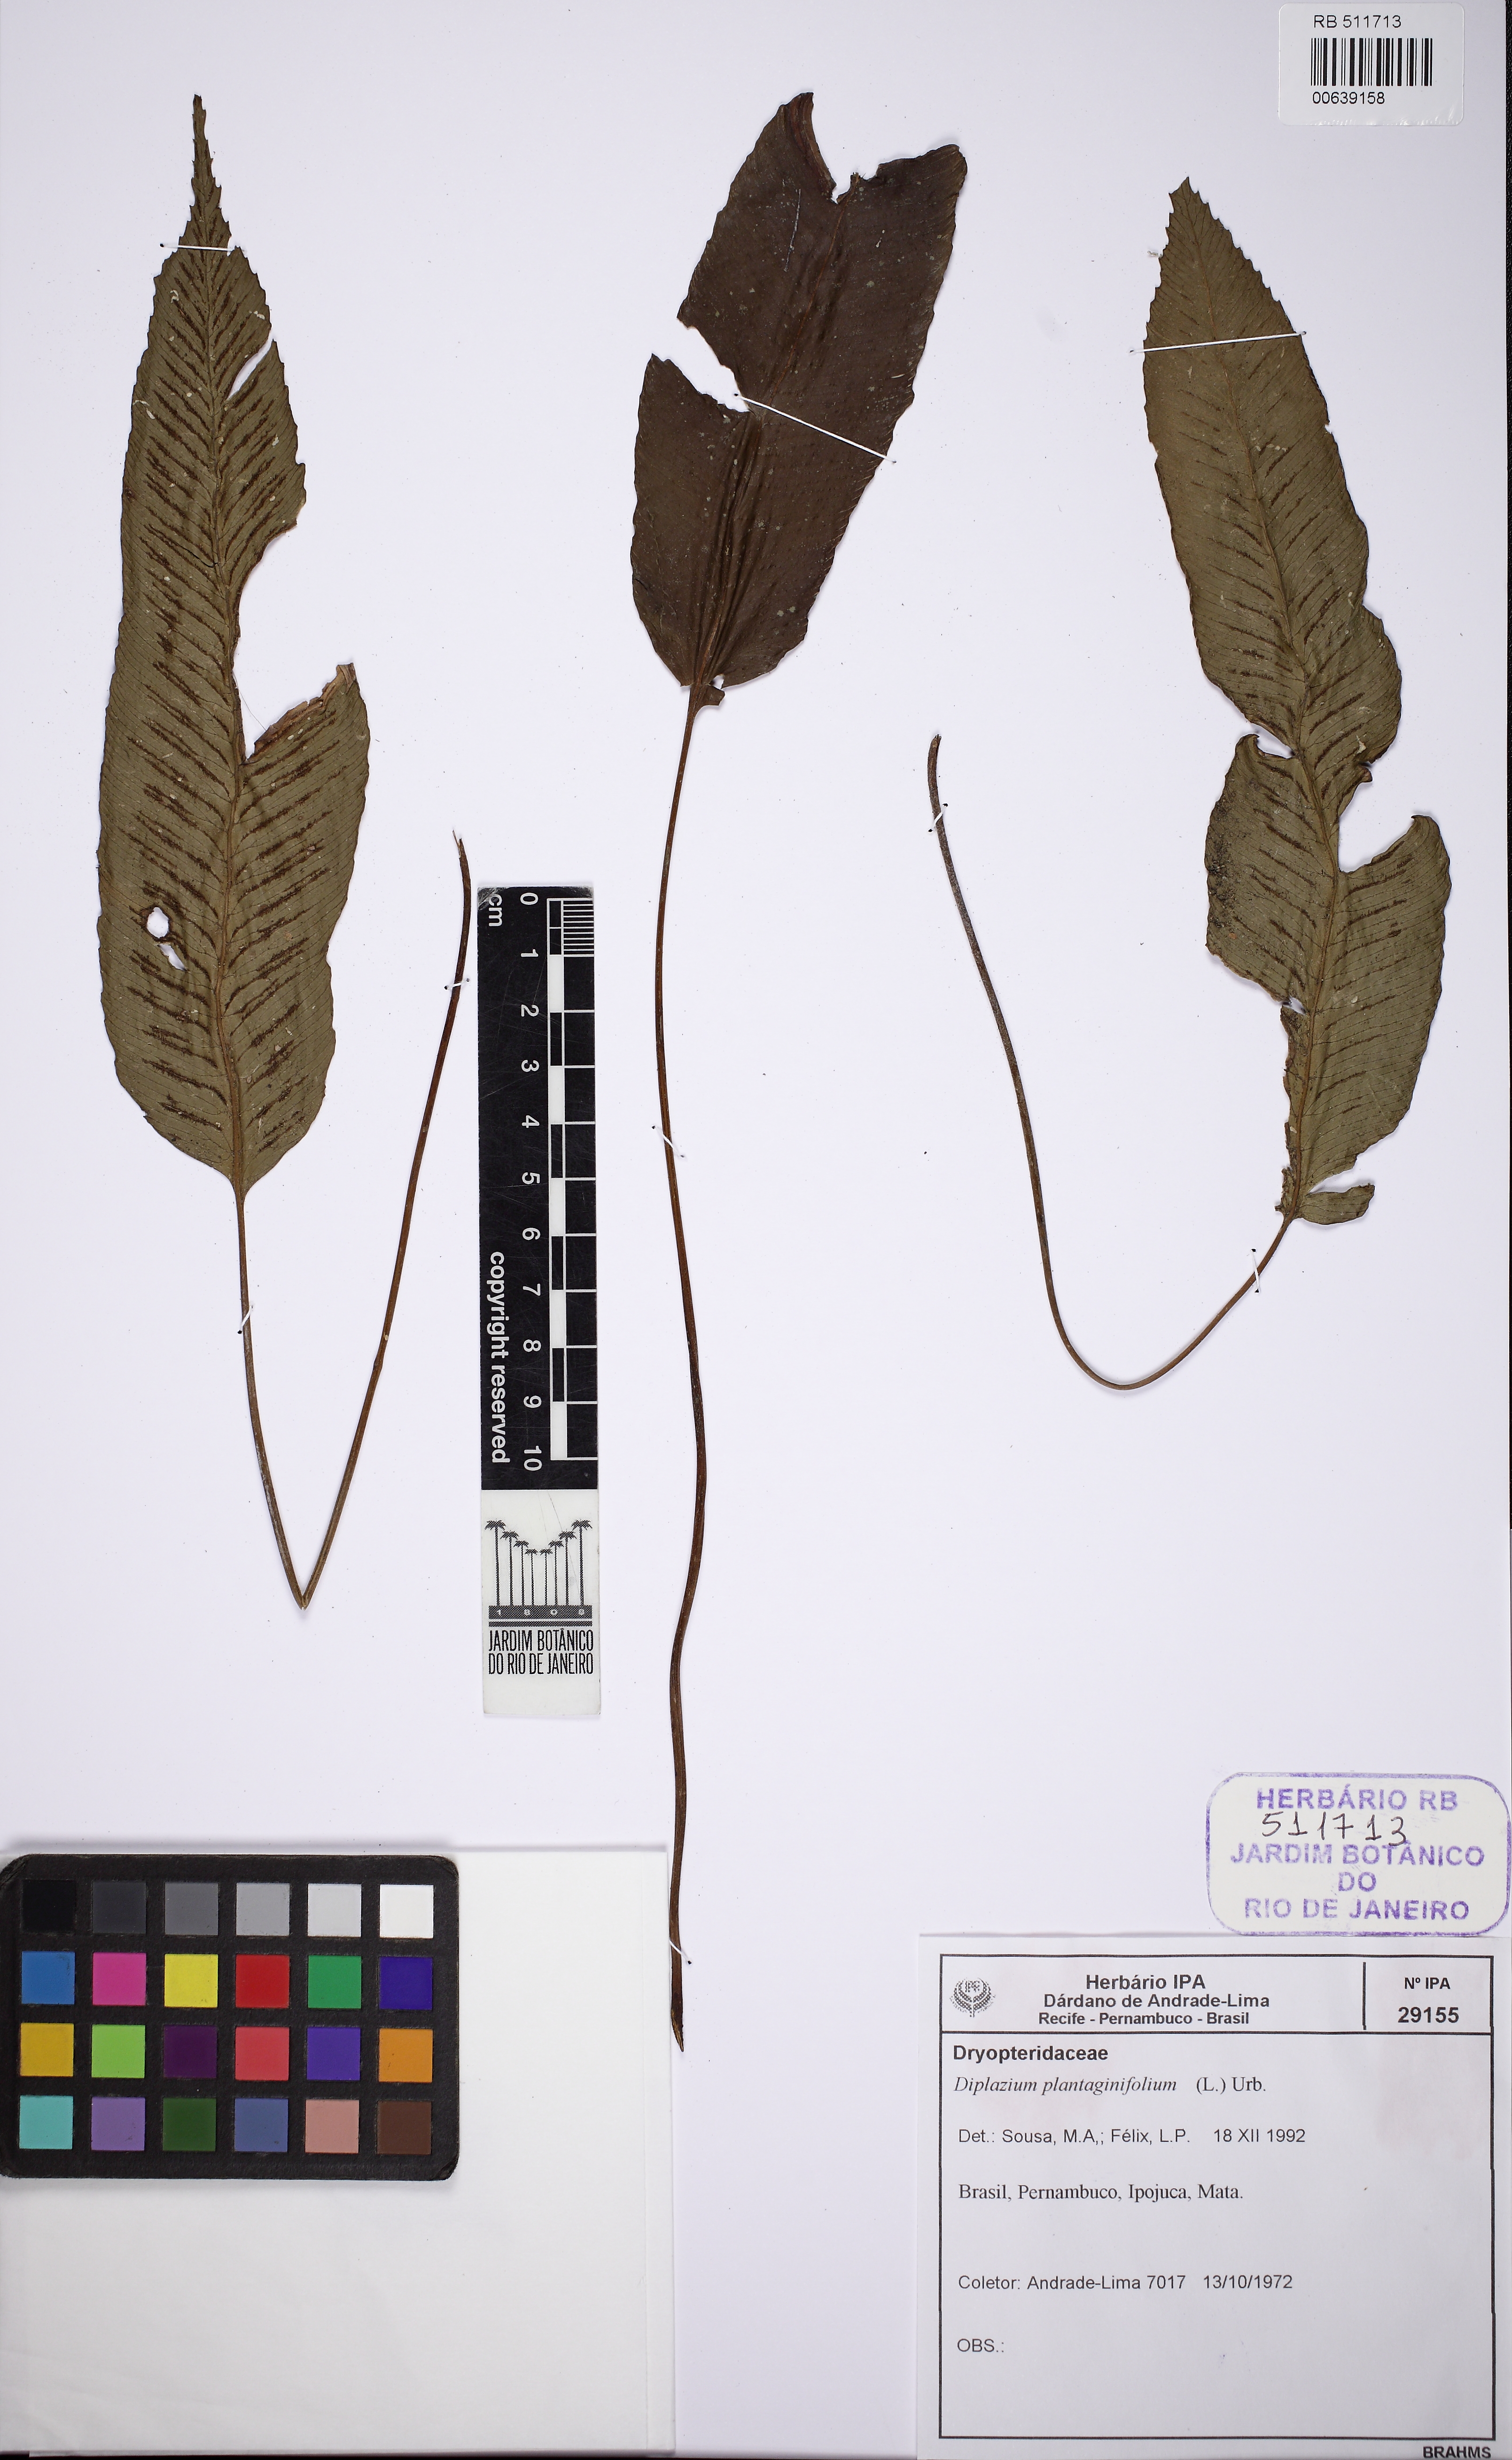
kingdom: Plantae
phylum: Tracheophyta
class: Polypodiopsida
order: Polypodiales
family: Athyriaceae
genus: Diplazium
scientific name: Diplazium plantaginifolium
